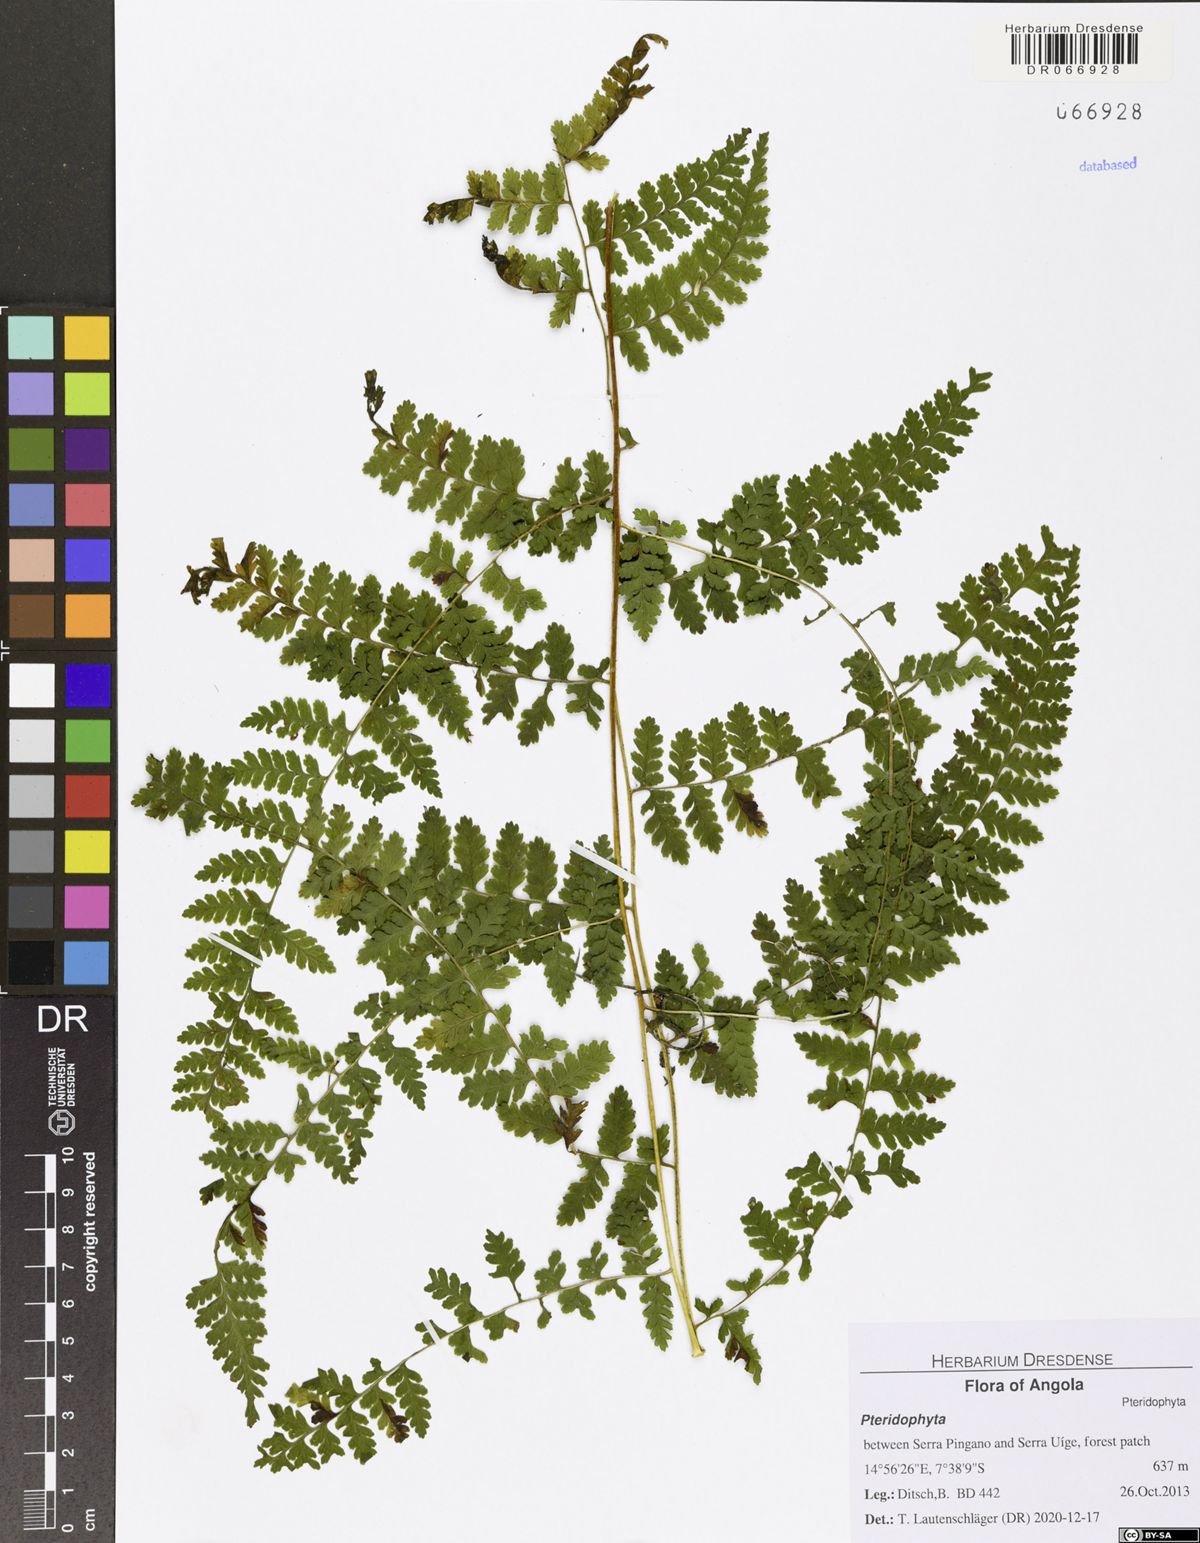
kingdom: Plantae
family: Pteridophyta
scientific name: Pteridophyta
